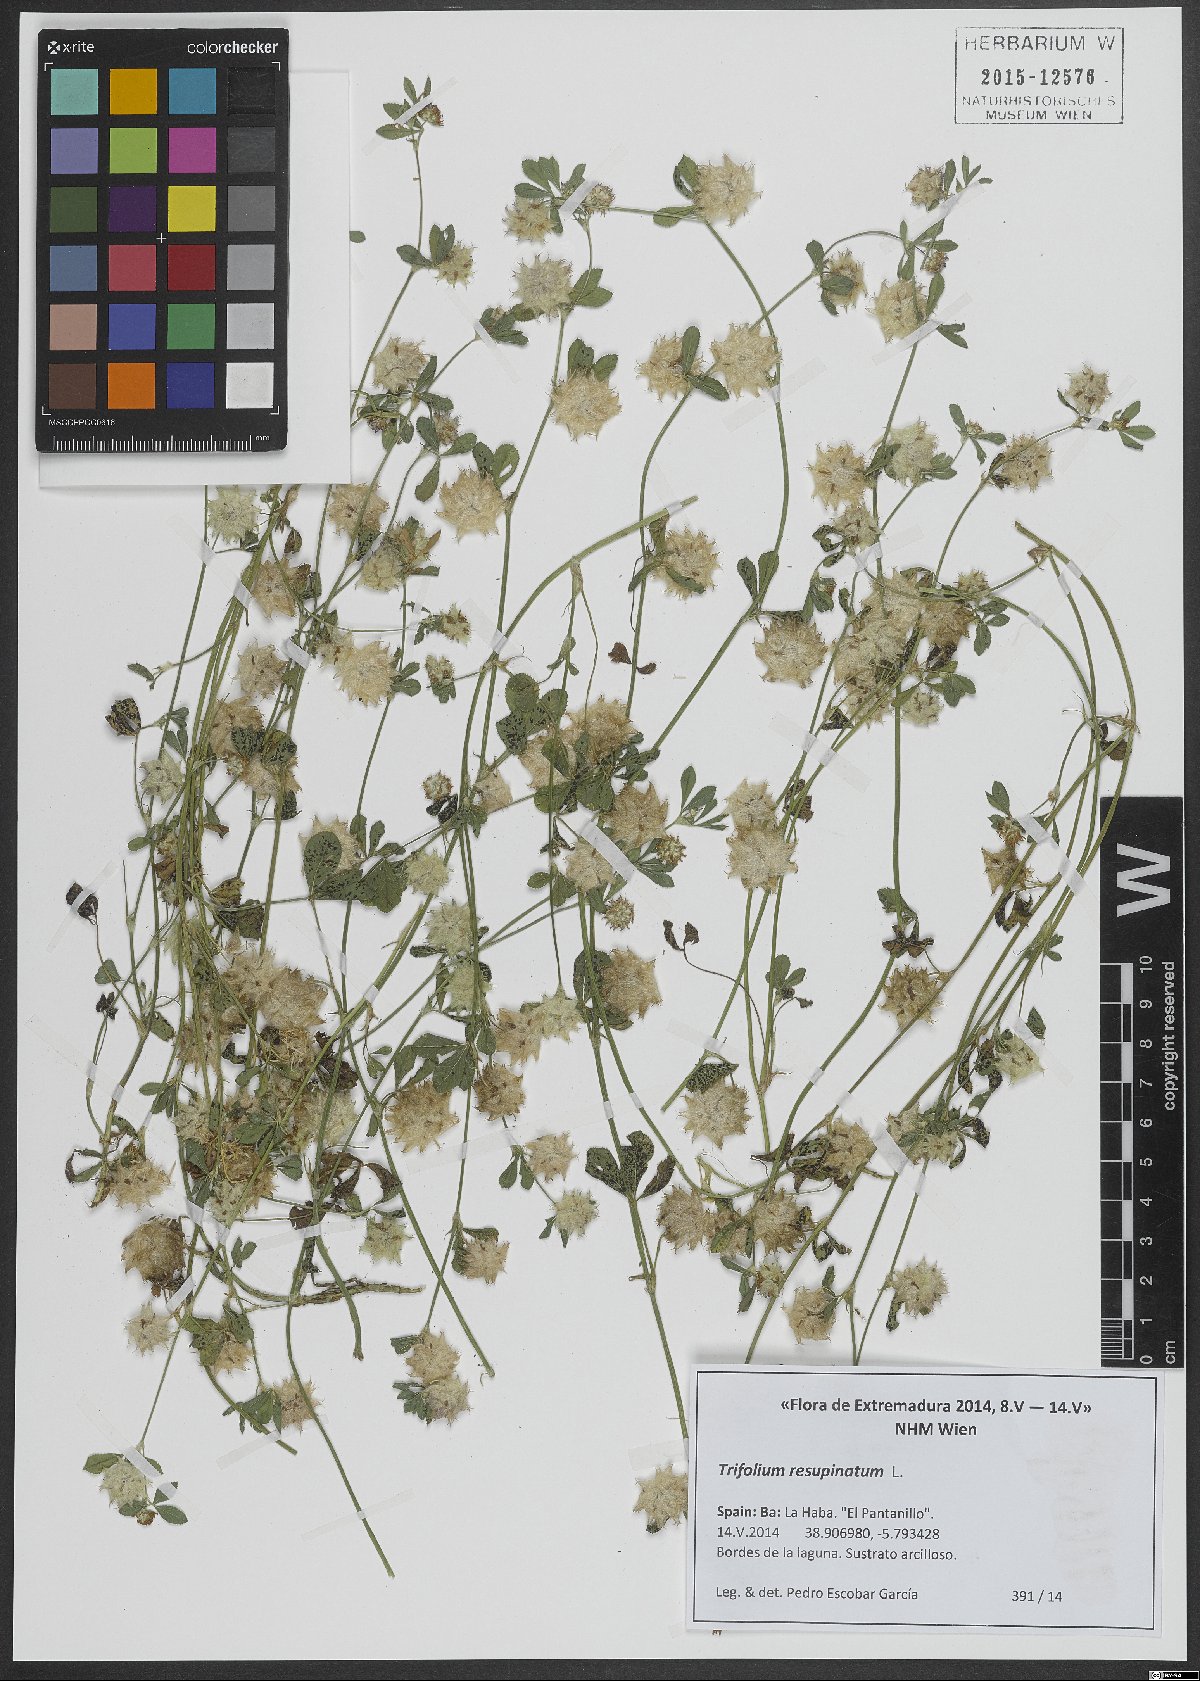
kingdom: Plantae
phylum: Tracheophyta
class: Magnoliopsida
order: Fabales
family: Fabaceae
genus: Trifolium
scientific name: Trifolium resupinatum
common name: Reversed clover
